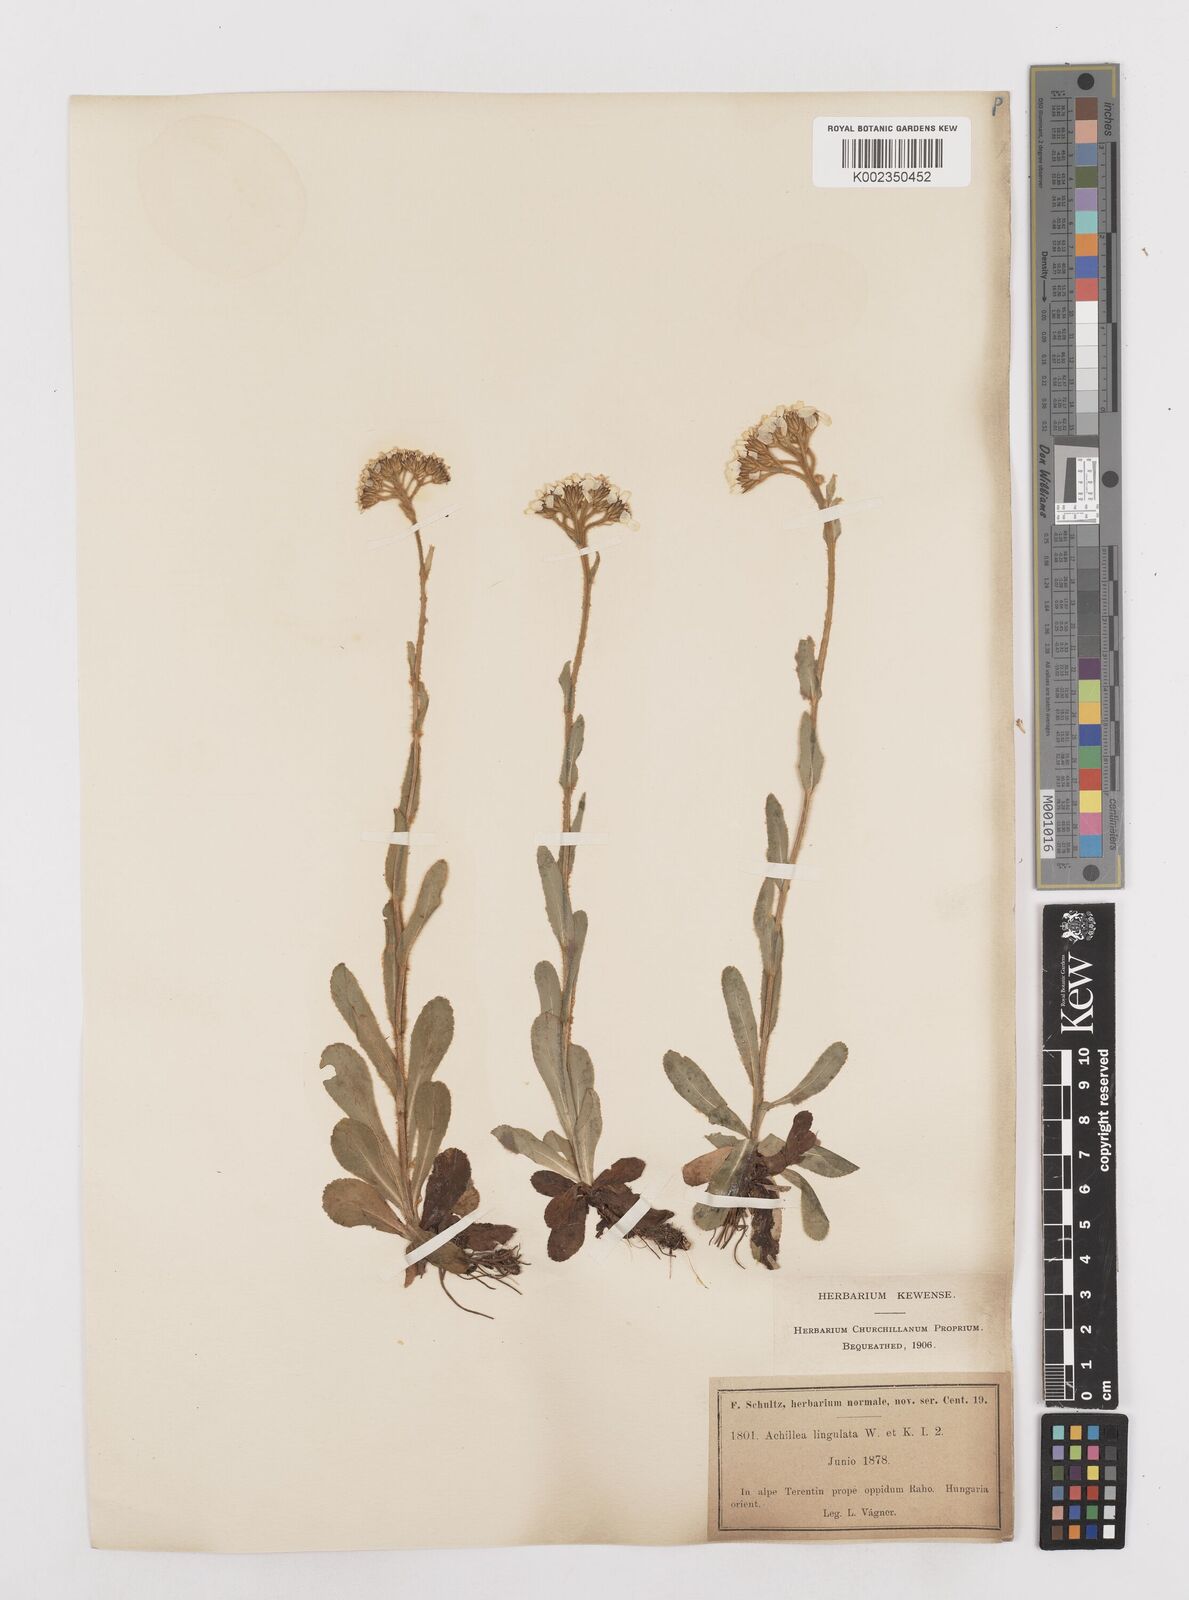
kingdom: Plantae
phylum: Tracheophyta
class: Magnoliopsida
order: Asterales
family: Asteraceae
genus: Achillea
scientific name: Achillea lingulata
